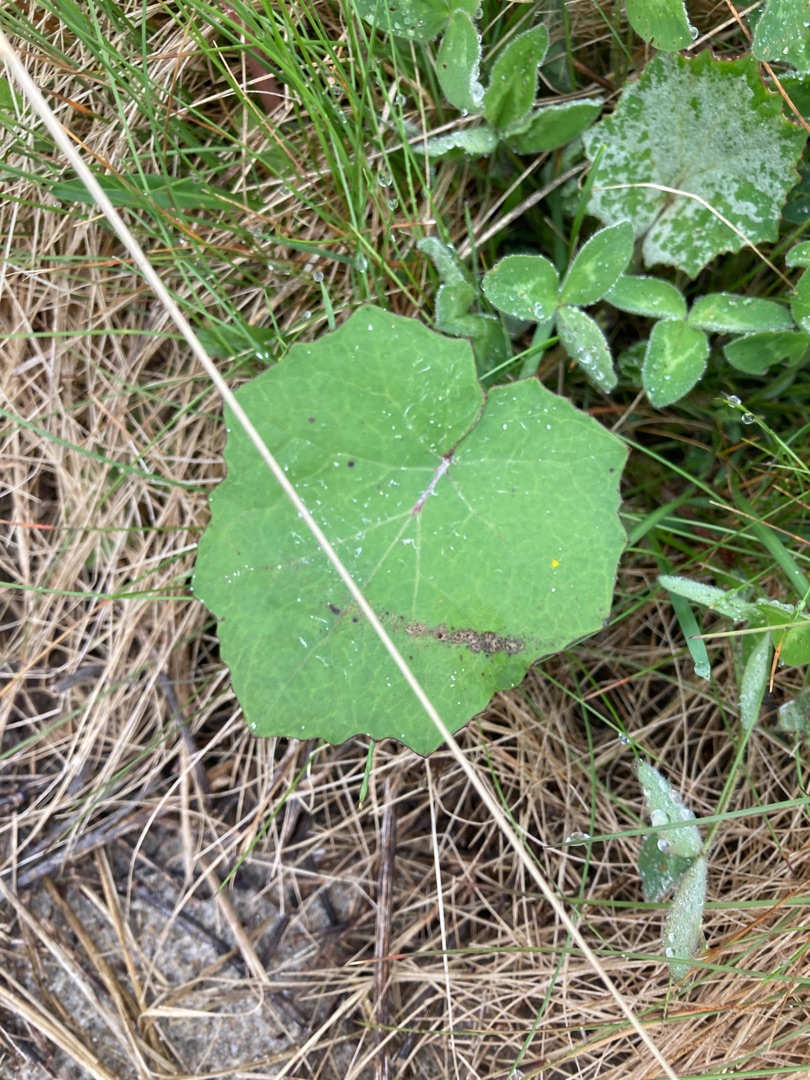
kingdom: Plantae
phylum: Tracheophyta
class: Magnoliopsida
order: Asterales
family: Asteraceae
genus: Tussilago
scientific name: Tussilago farfara
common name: Følfod
